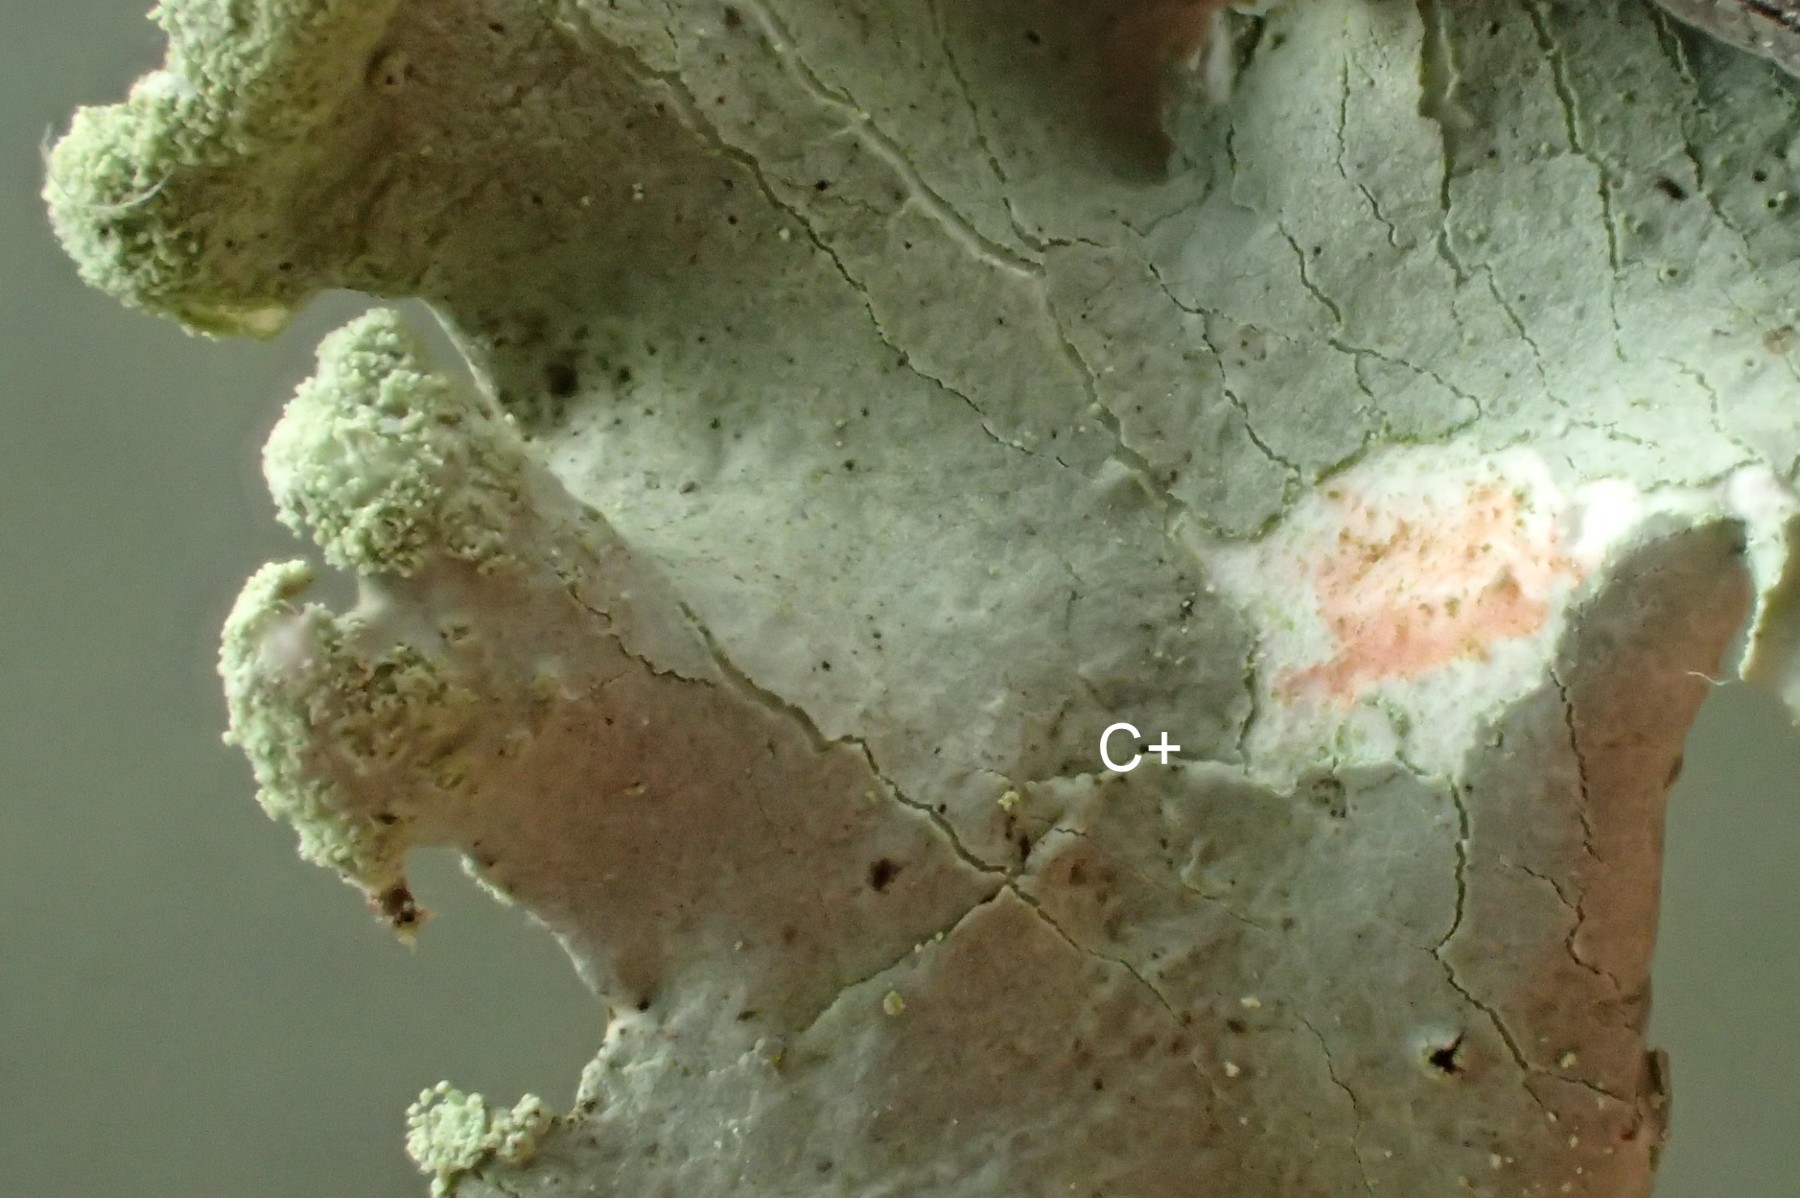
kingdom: Fungi
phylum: Ascomycota
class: Lecanoromycetes
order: Lecanorales
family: Parmeliaceae
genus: Hypotrachyna
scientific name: Hypotrachyna revoluta
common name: bleggrå skållav
